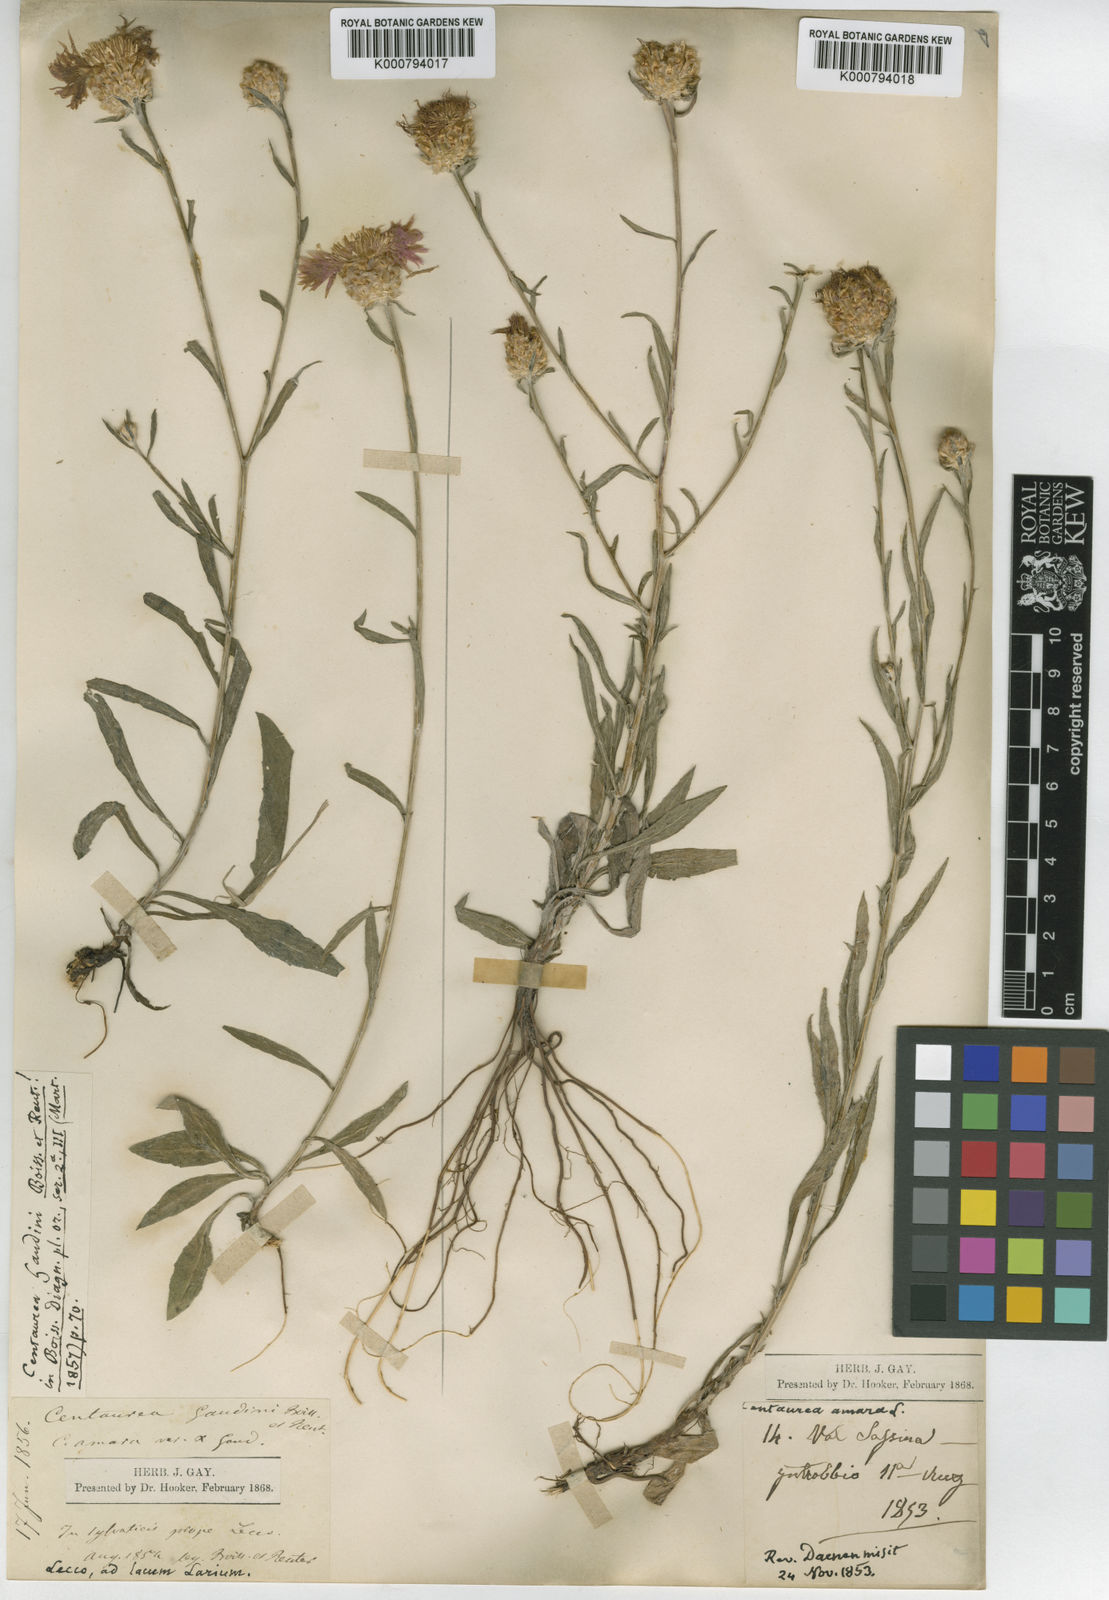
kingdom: Plantae
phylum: Tracheophyta
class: Magnoliopsida
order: Asterales
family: Asteraceae
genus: Centaurea
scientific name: Centaurea ptosimopappa
